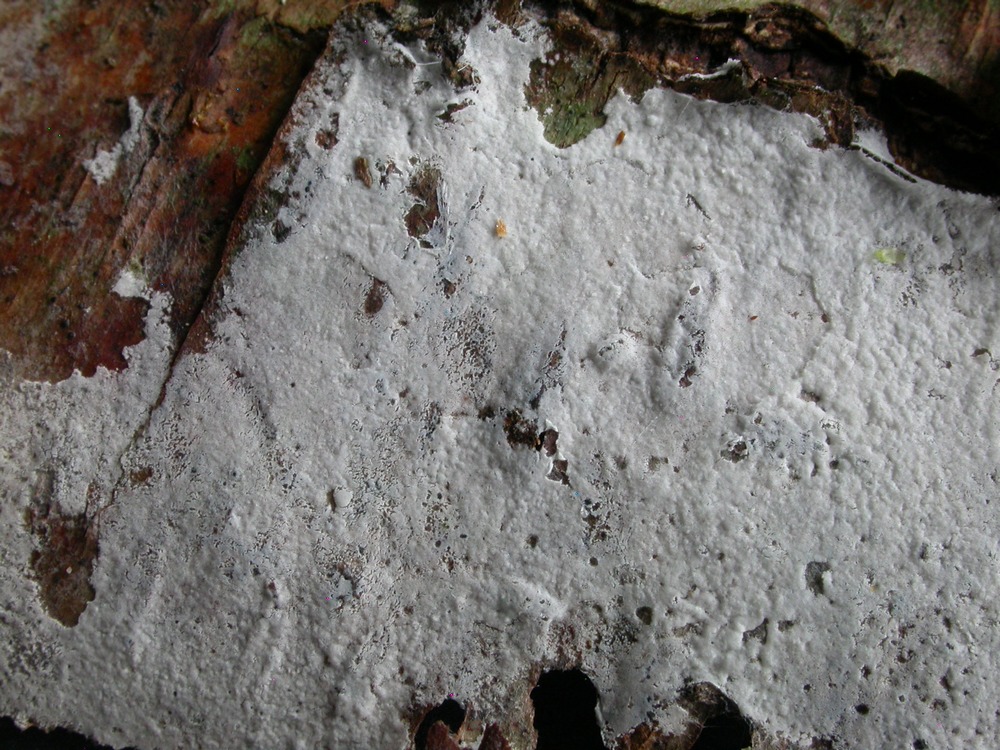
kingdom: Fungi
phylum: Basidiomycota
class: Agaricomycetes
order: Atheliales
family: Atheliaceae
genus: Athelia
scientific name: Athelia epiphylla
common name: almindelig barkhinde
